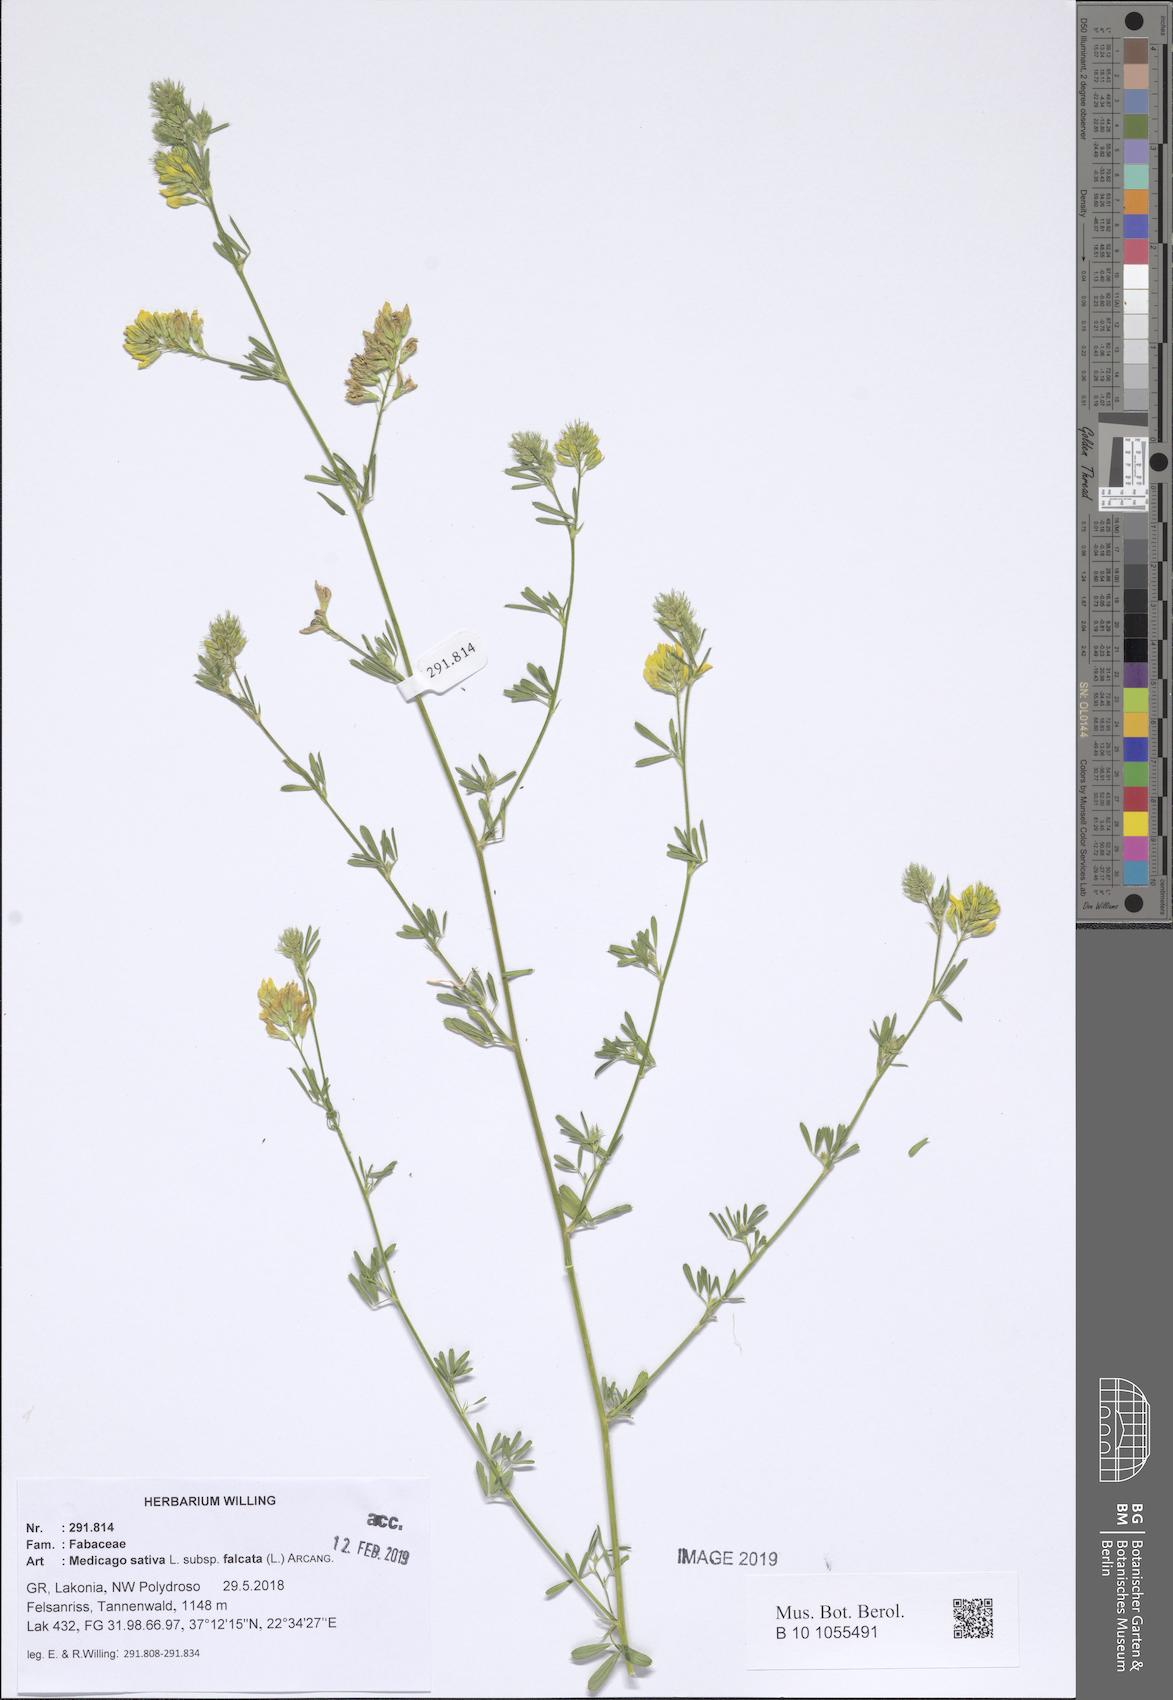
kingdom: Plantae
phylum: Tracheophyta
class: Magnoliopsida
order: Fabales
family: Fabaceae
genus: Medicago
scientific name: Medicago falcata
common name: Sickle medick
